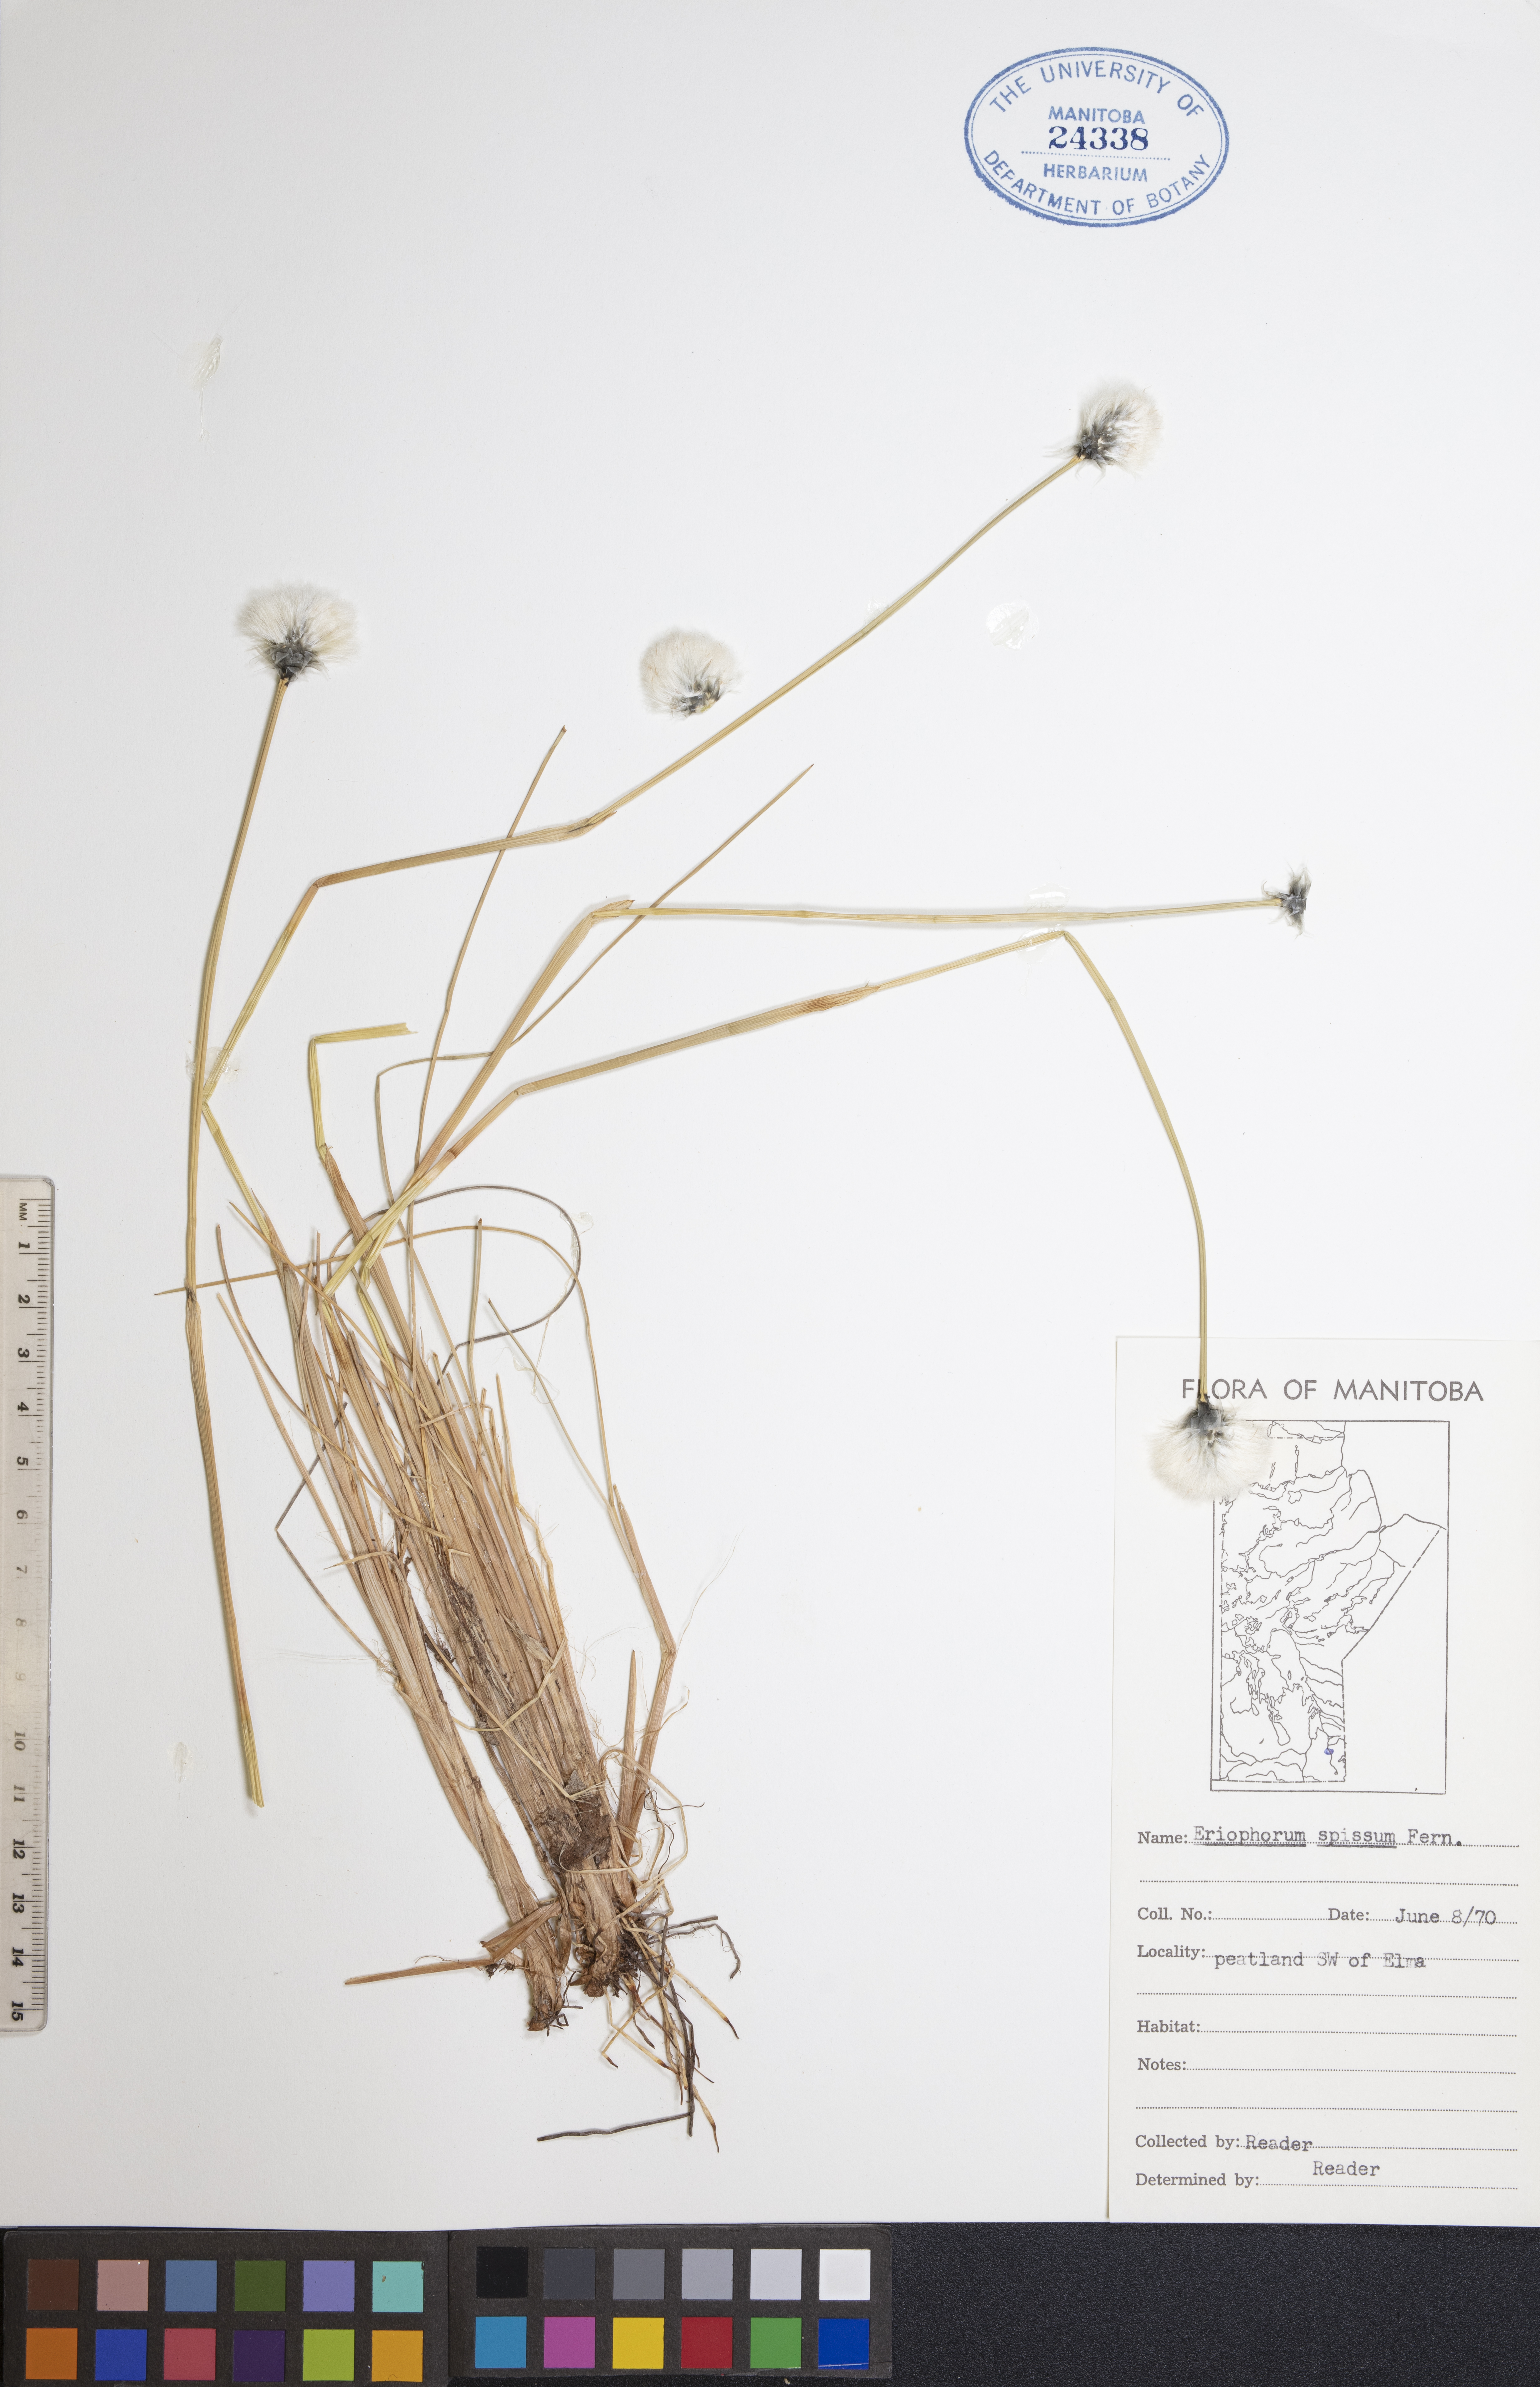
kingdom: Plantae
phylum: Tracheophyta
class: Liliopsida
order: Poales
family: Cyperaceae
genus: Eriophorum
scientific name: Eriophorum vaginatum
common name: Hare's-tail cottongrass
